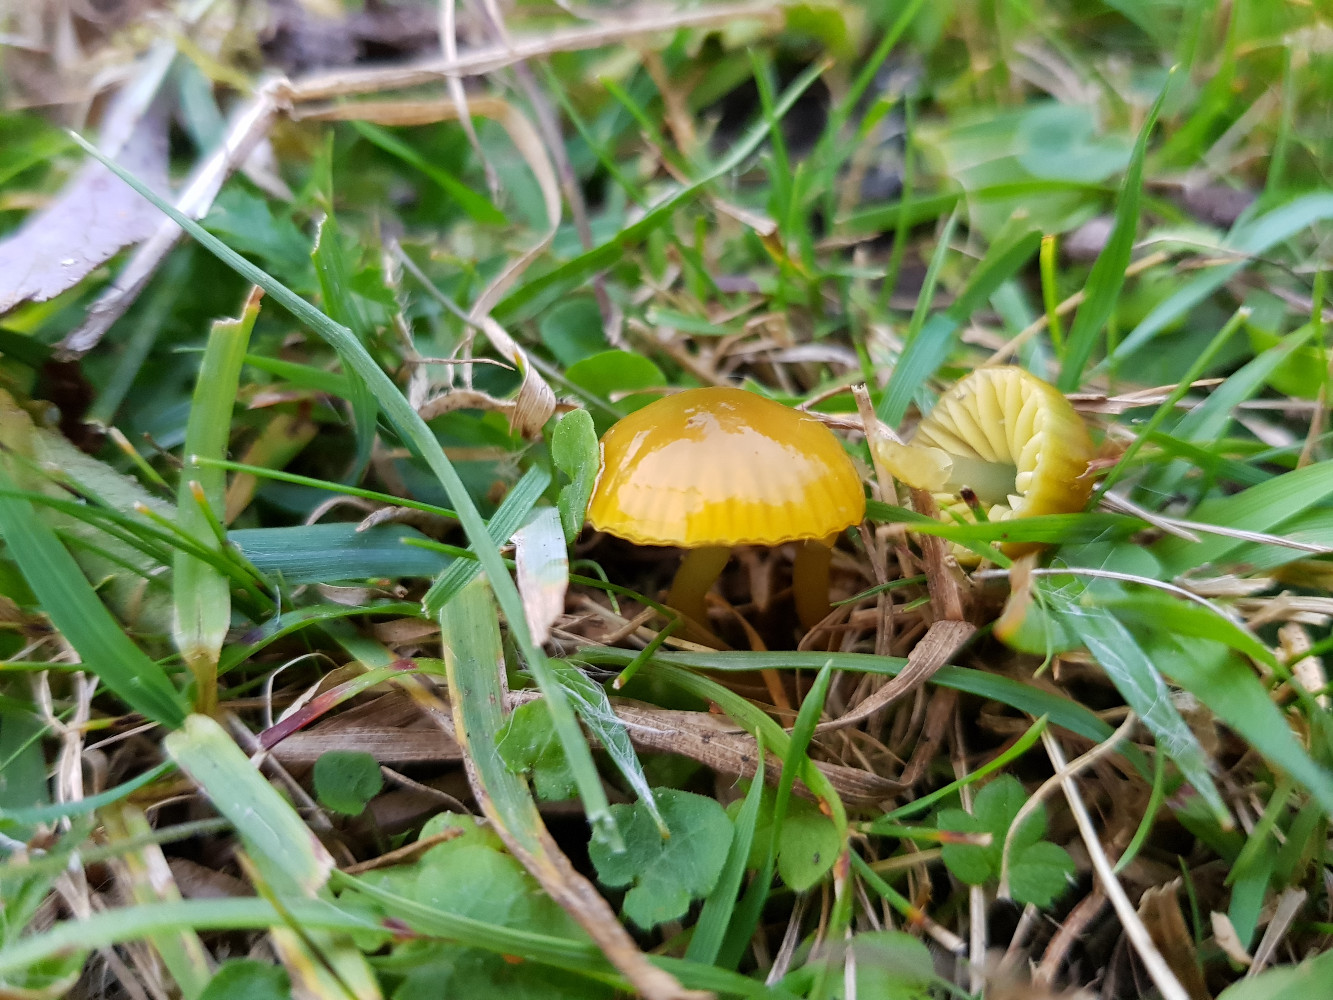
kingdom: Fungi
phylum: Basidiomycota
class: Agaricomycetes
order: Agaricales
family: Hygrophoraceae
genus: Gliophorus
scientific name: Gliophorus psittacinus
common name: papegøje-vokshat
